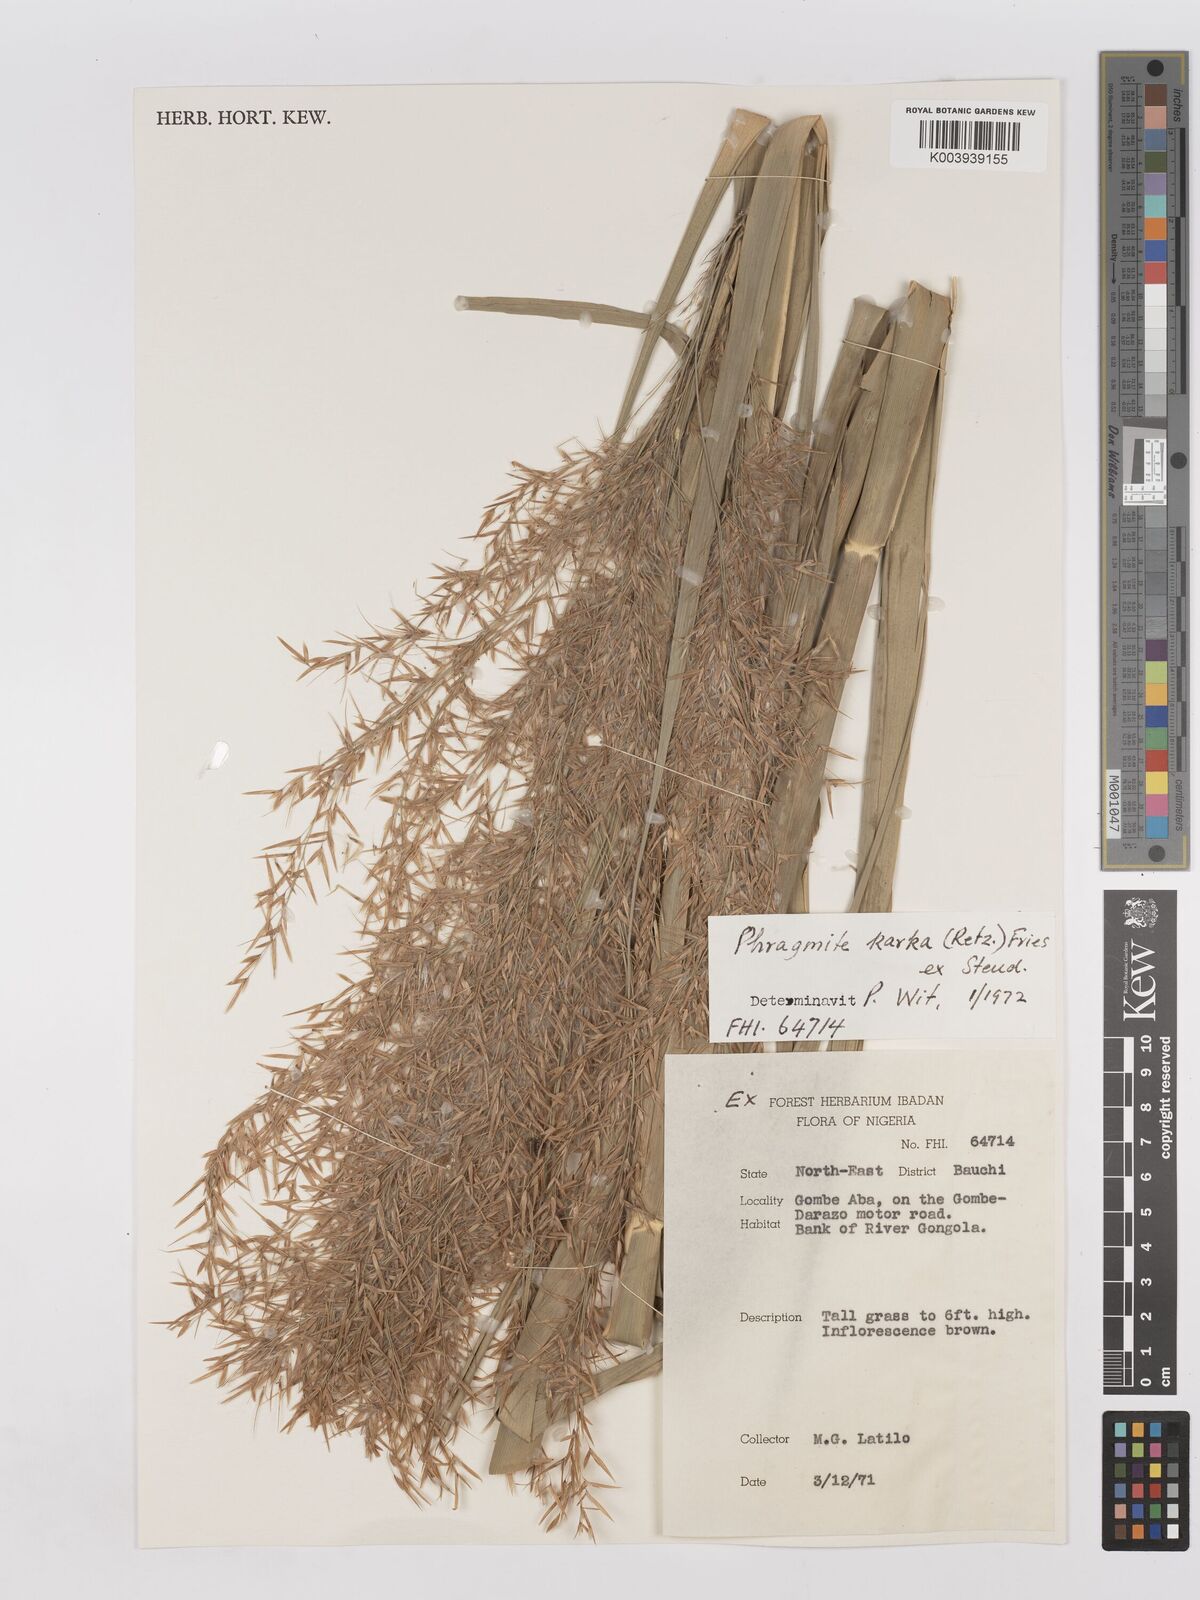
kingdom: Plantae
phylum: Tracheophyta
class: Liliopsida
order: Poales
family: Poaceae
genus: Phragmites
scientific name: Phragmites karka
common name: Tropical reed
